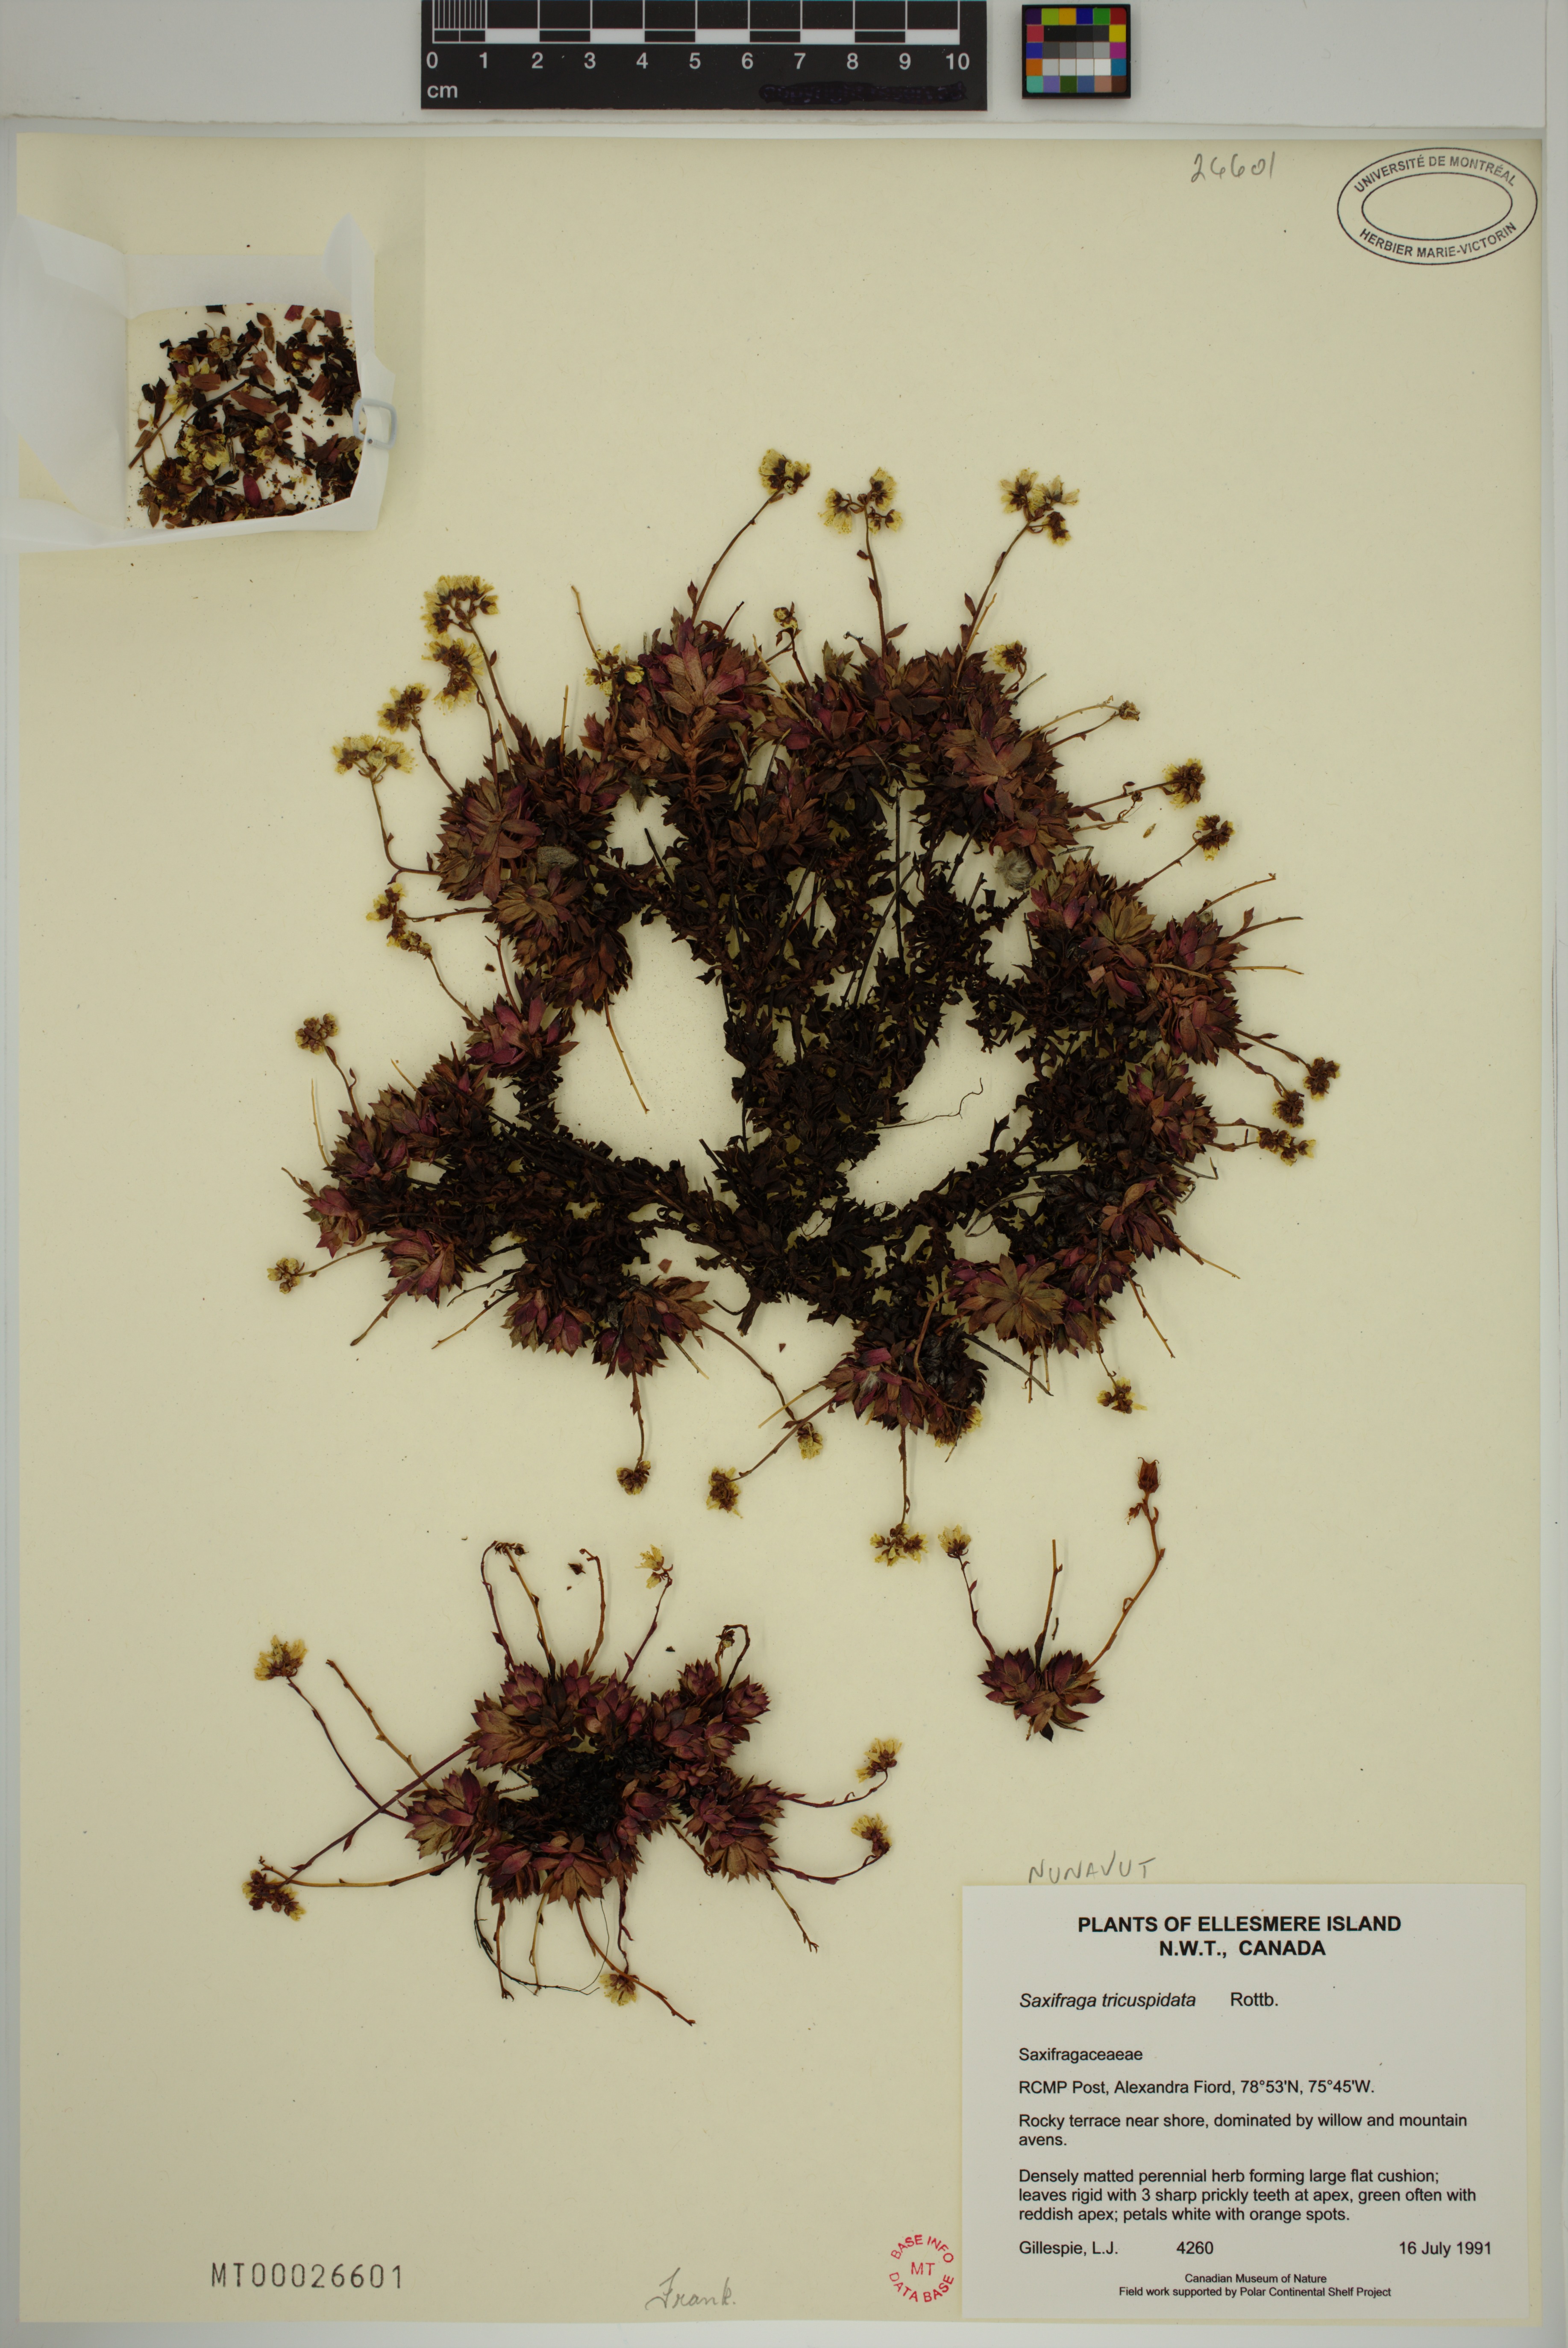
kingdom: Plantae
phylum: Tracheophyta
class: Magnoliopsida
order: Saxifragales
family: Saxifragaceae
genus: Saxifraga
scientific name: Saxifraga tricuspidata
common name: Prickly saxifrage
